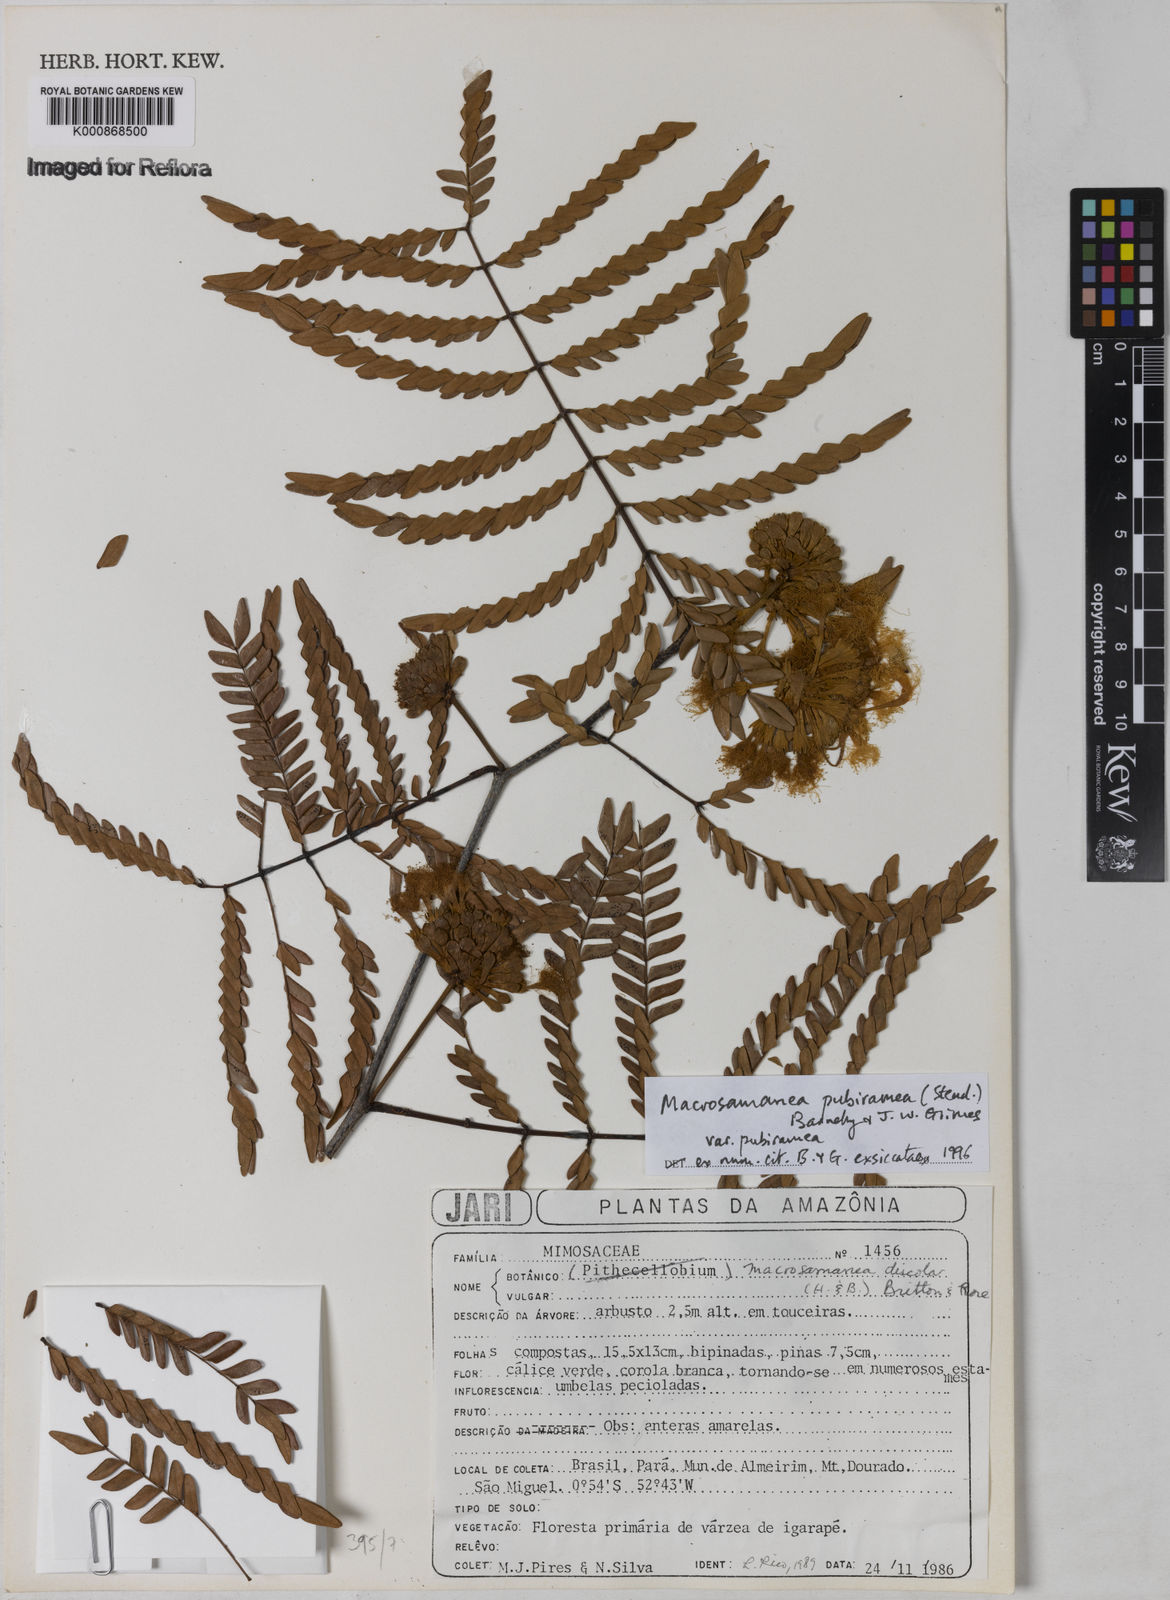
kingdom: Plantae
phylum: Tracheophyta
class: Magnoliopsida
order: Fabales
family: Fabaceae
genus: Macrosamanea
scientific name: Macrosamanea pubiramea
